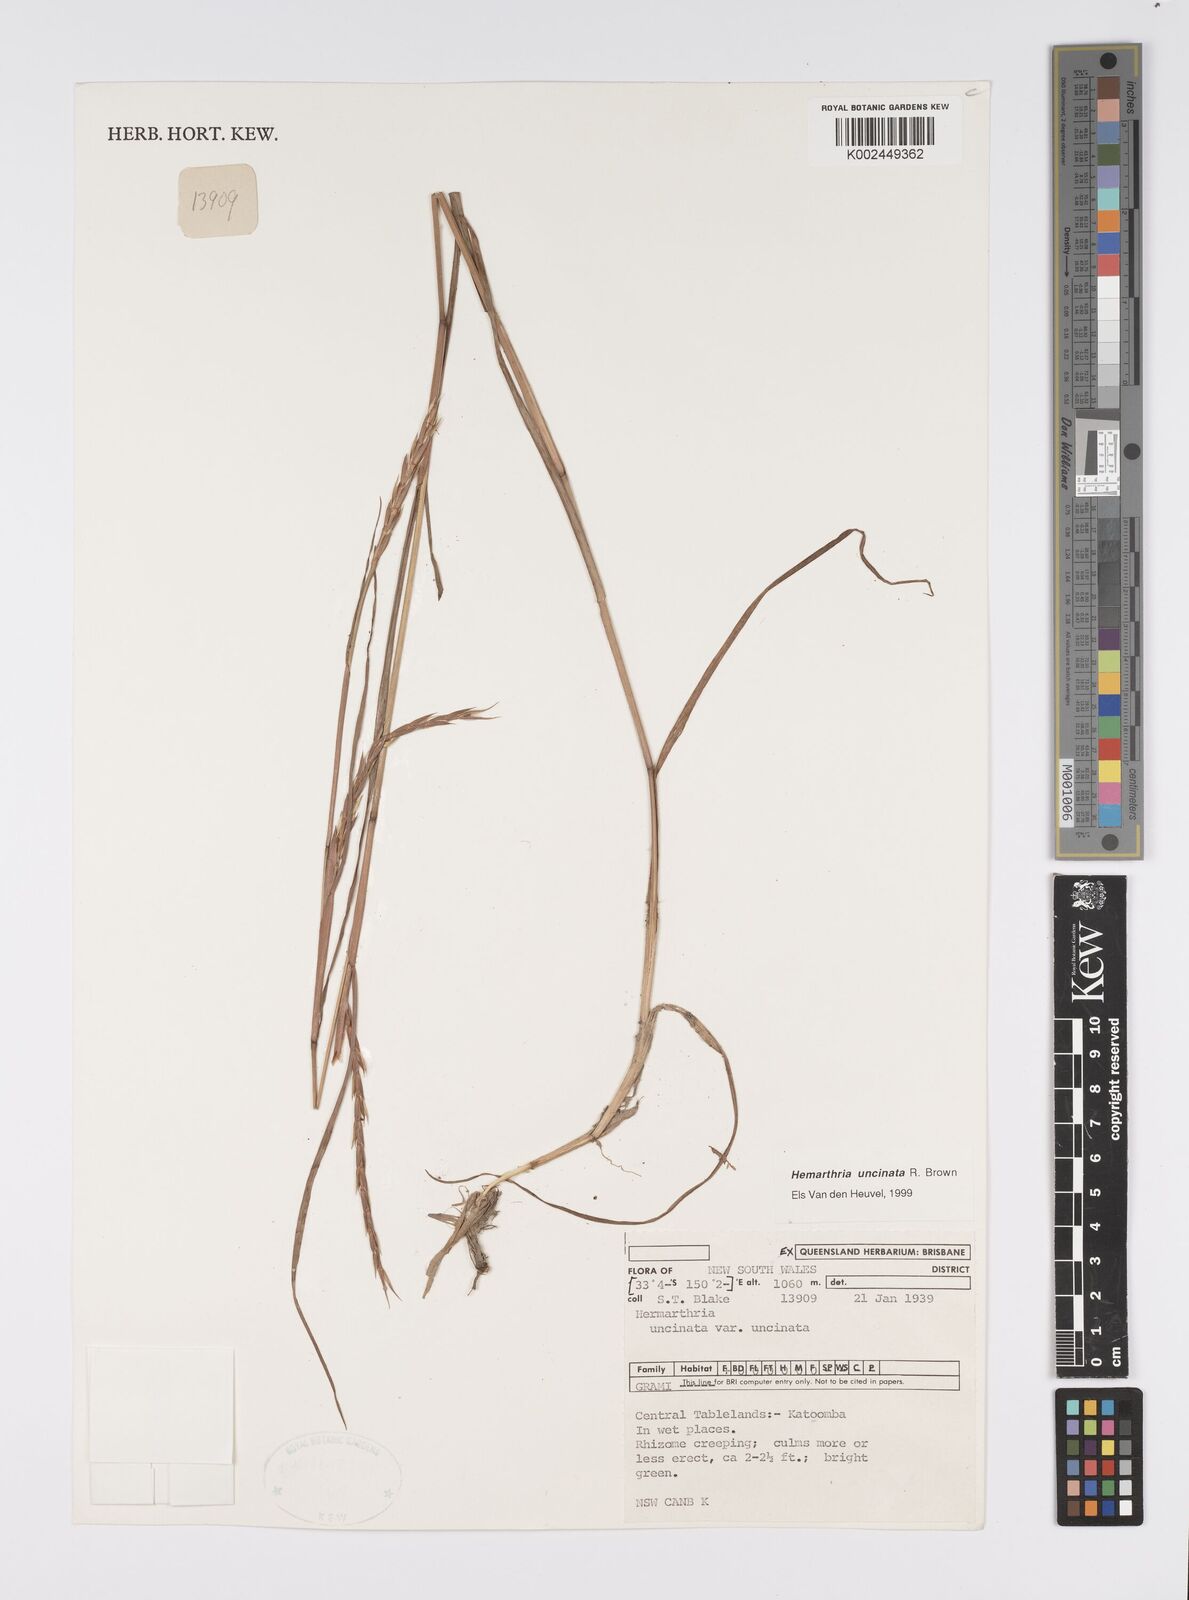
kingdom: Plantae
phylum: Tracheophyta
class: Liliopsida
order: Poales
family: Poaceae
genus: Hemarthria
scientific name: Hemarthria uncinata
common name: Matgrass
